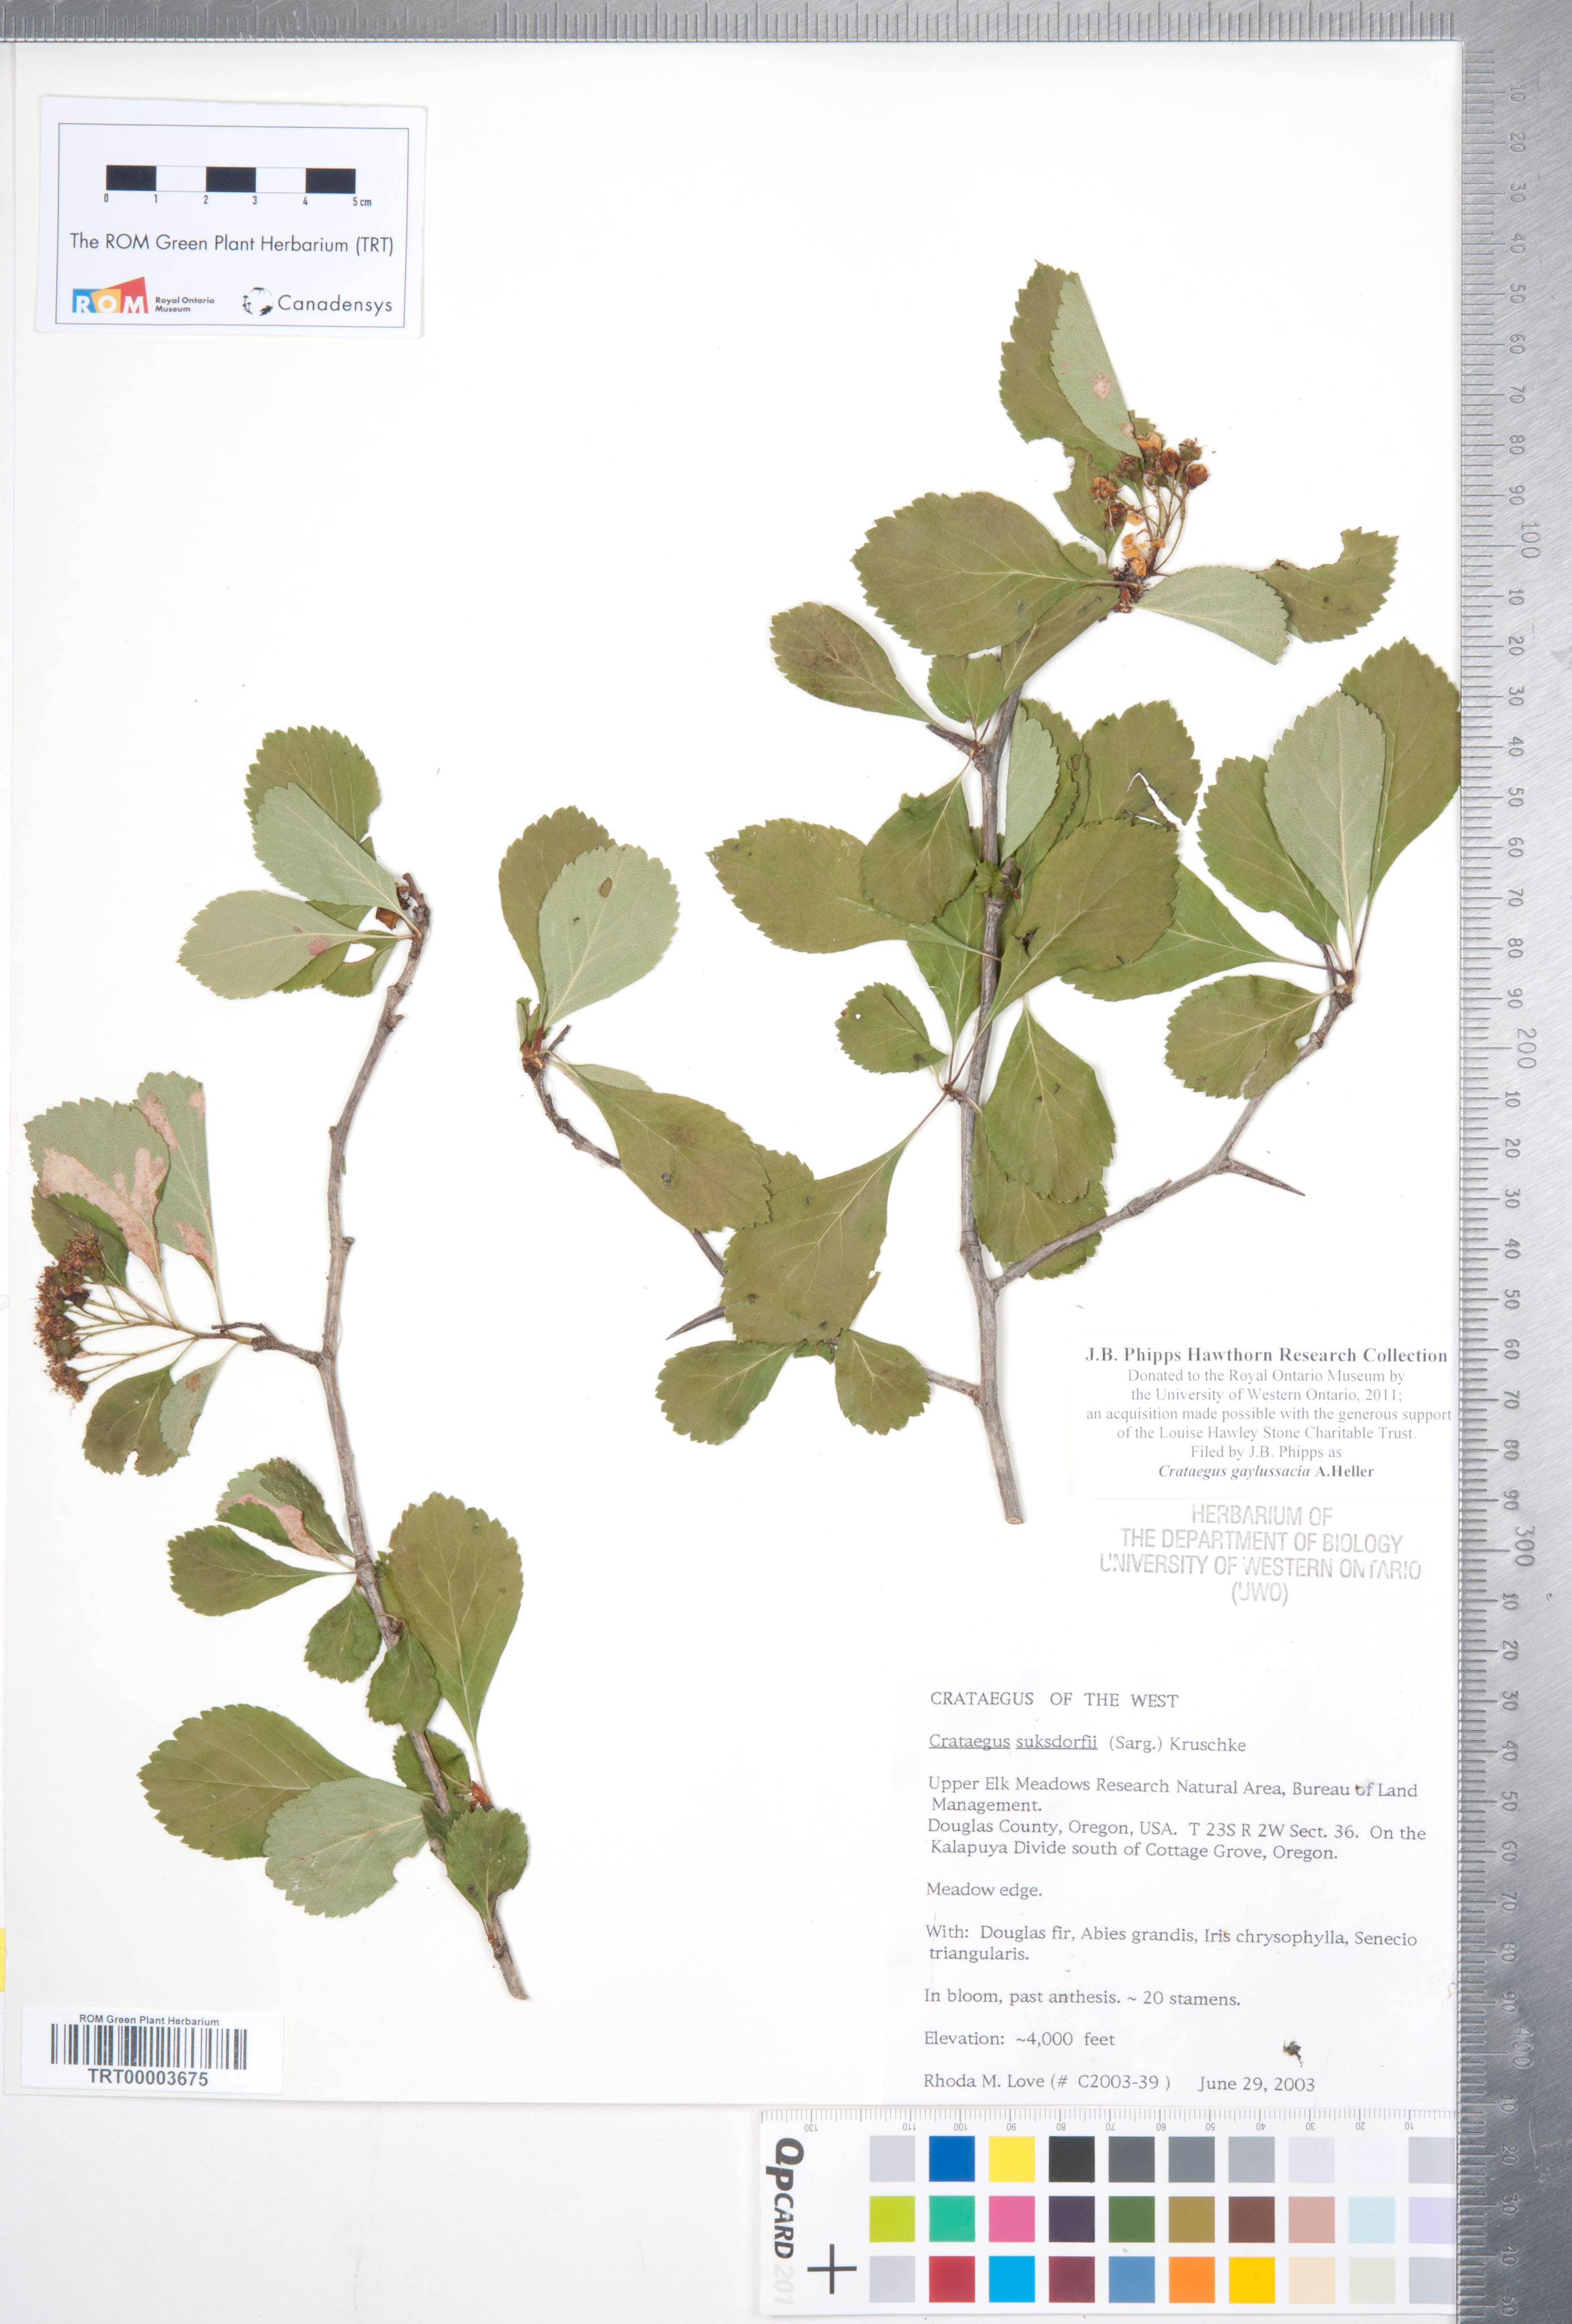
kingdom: Plantae
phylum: Tracheophyta
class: Magnoliopsida
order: Rosales
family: Rosaceae
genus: Crataegus
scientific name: Crataegus gaylussacia
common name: Huckleberry hawthorn
